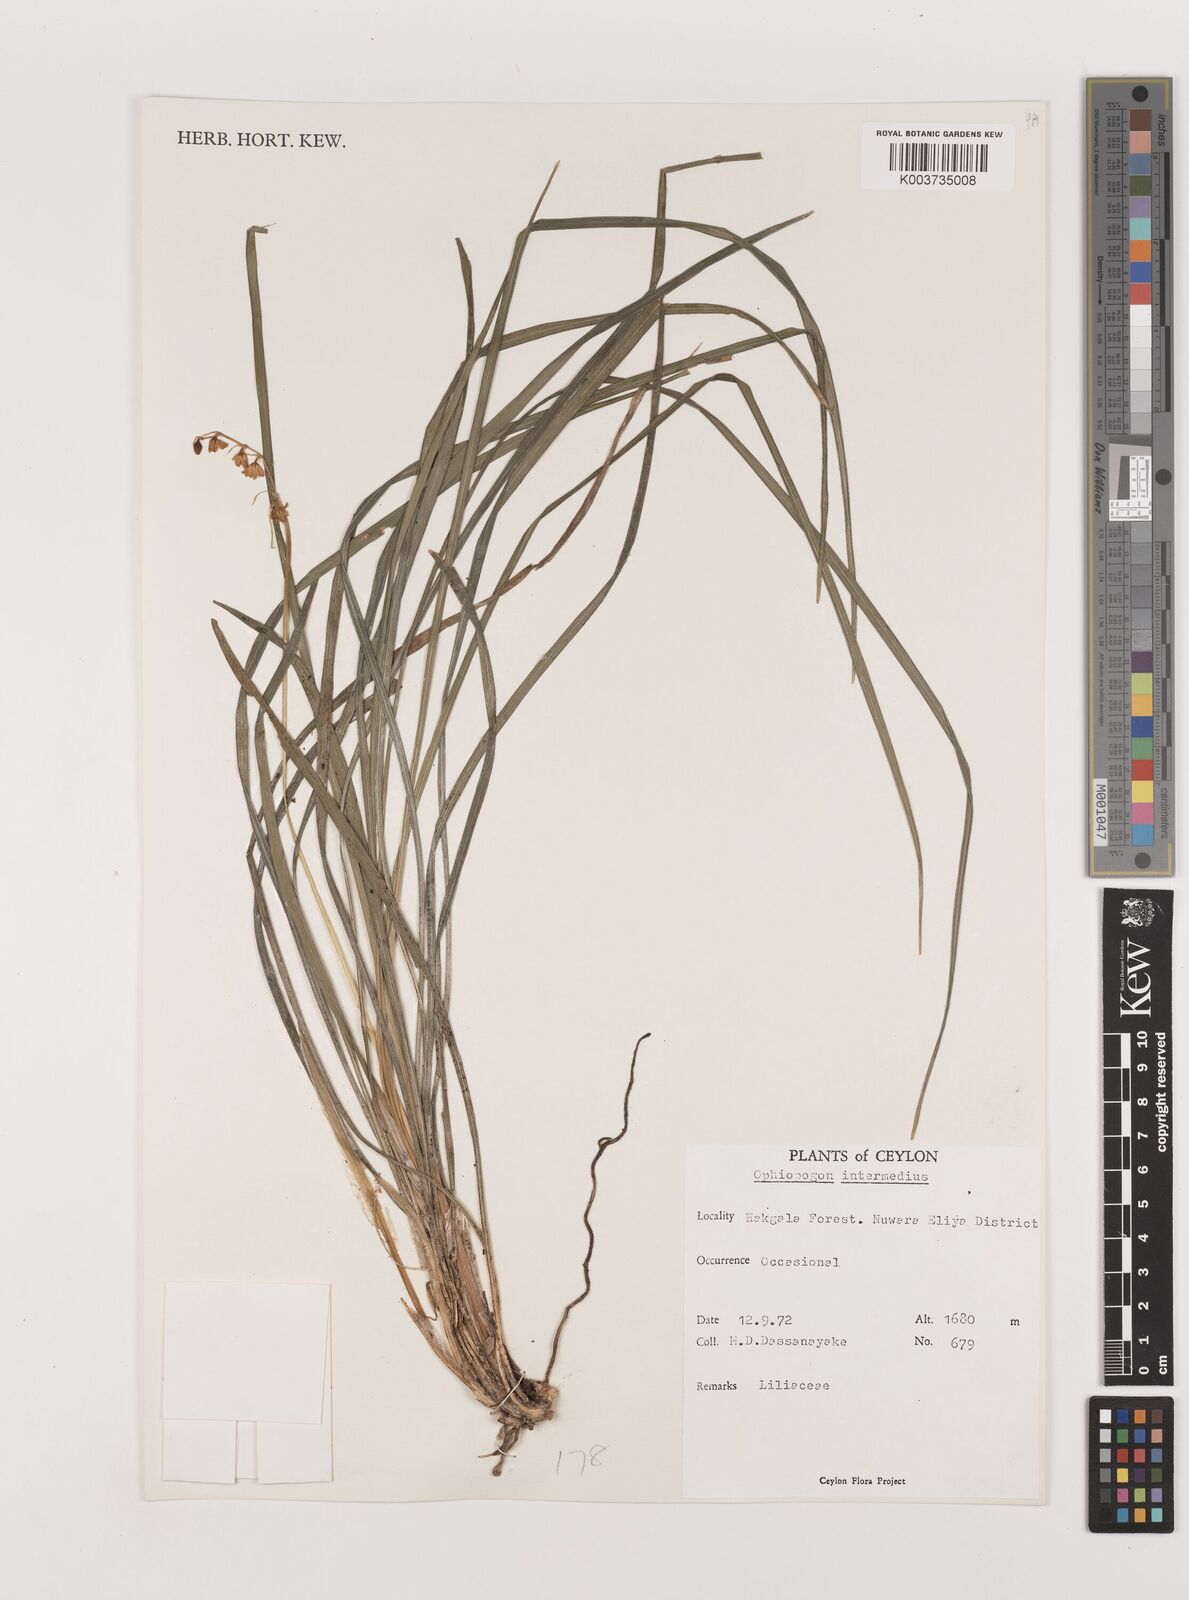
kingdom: Plantae
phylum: Tracheophyta
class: Liliopsida
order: Asparagales
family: Asparagaceae
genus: Ophiopogon
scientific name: Ophiopogon intermedius
